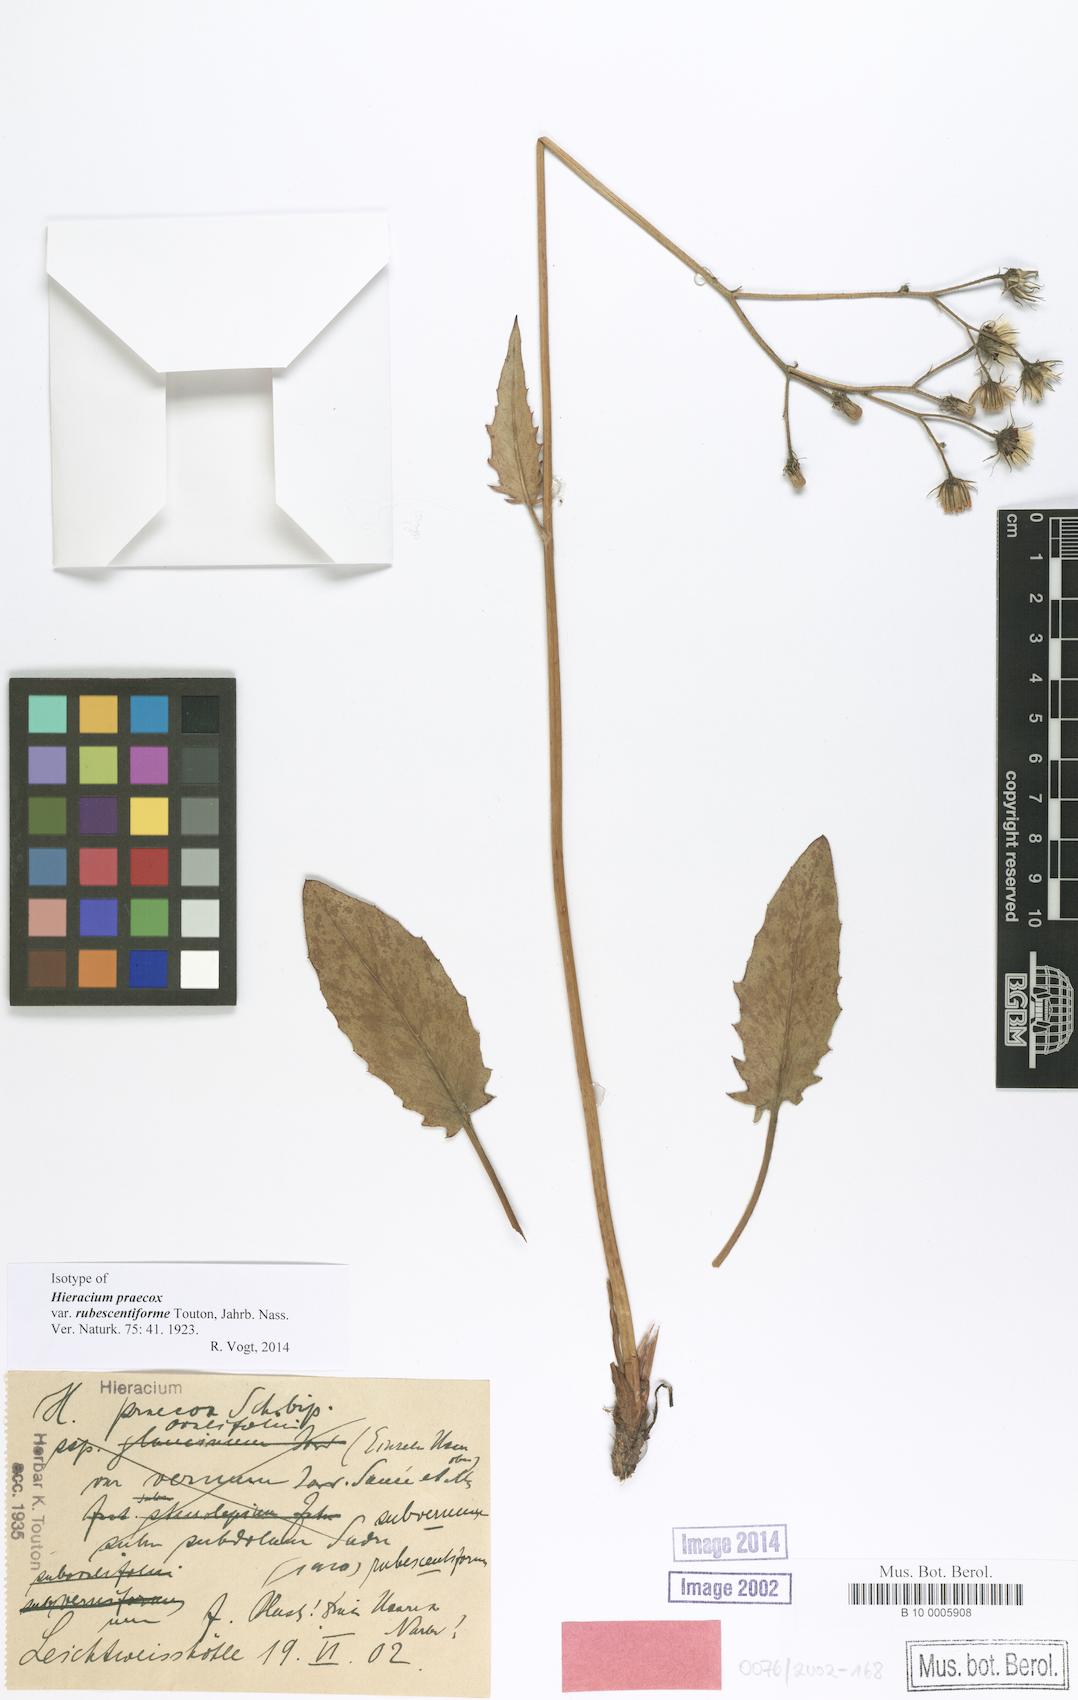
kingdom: Plantae
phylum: Tracheophyta
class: Magnoliopsida
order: Asterales
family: Asteraceae
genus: Hieracium
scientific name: Hieracium praecox
